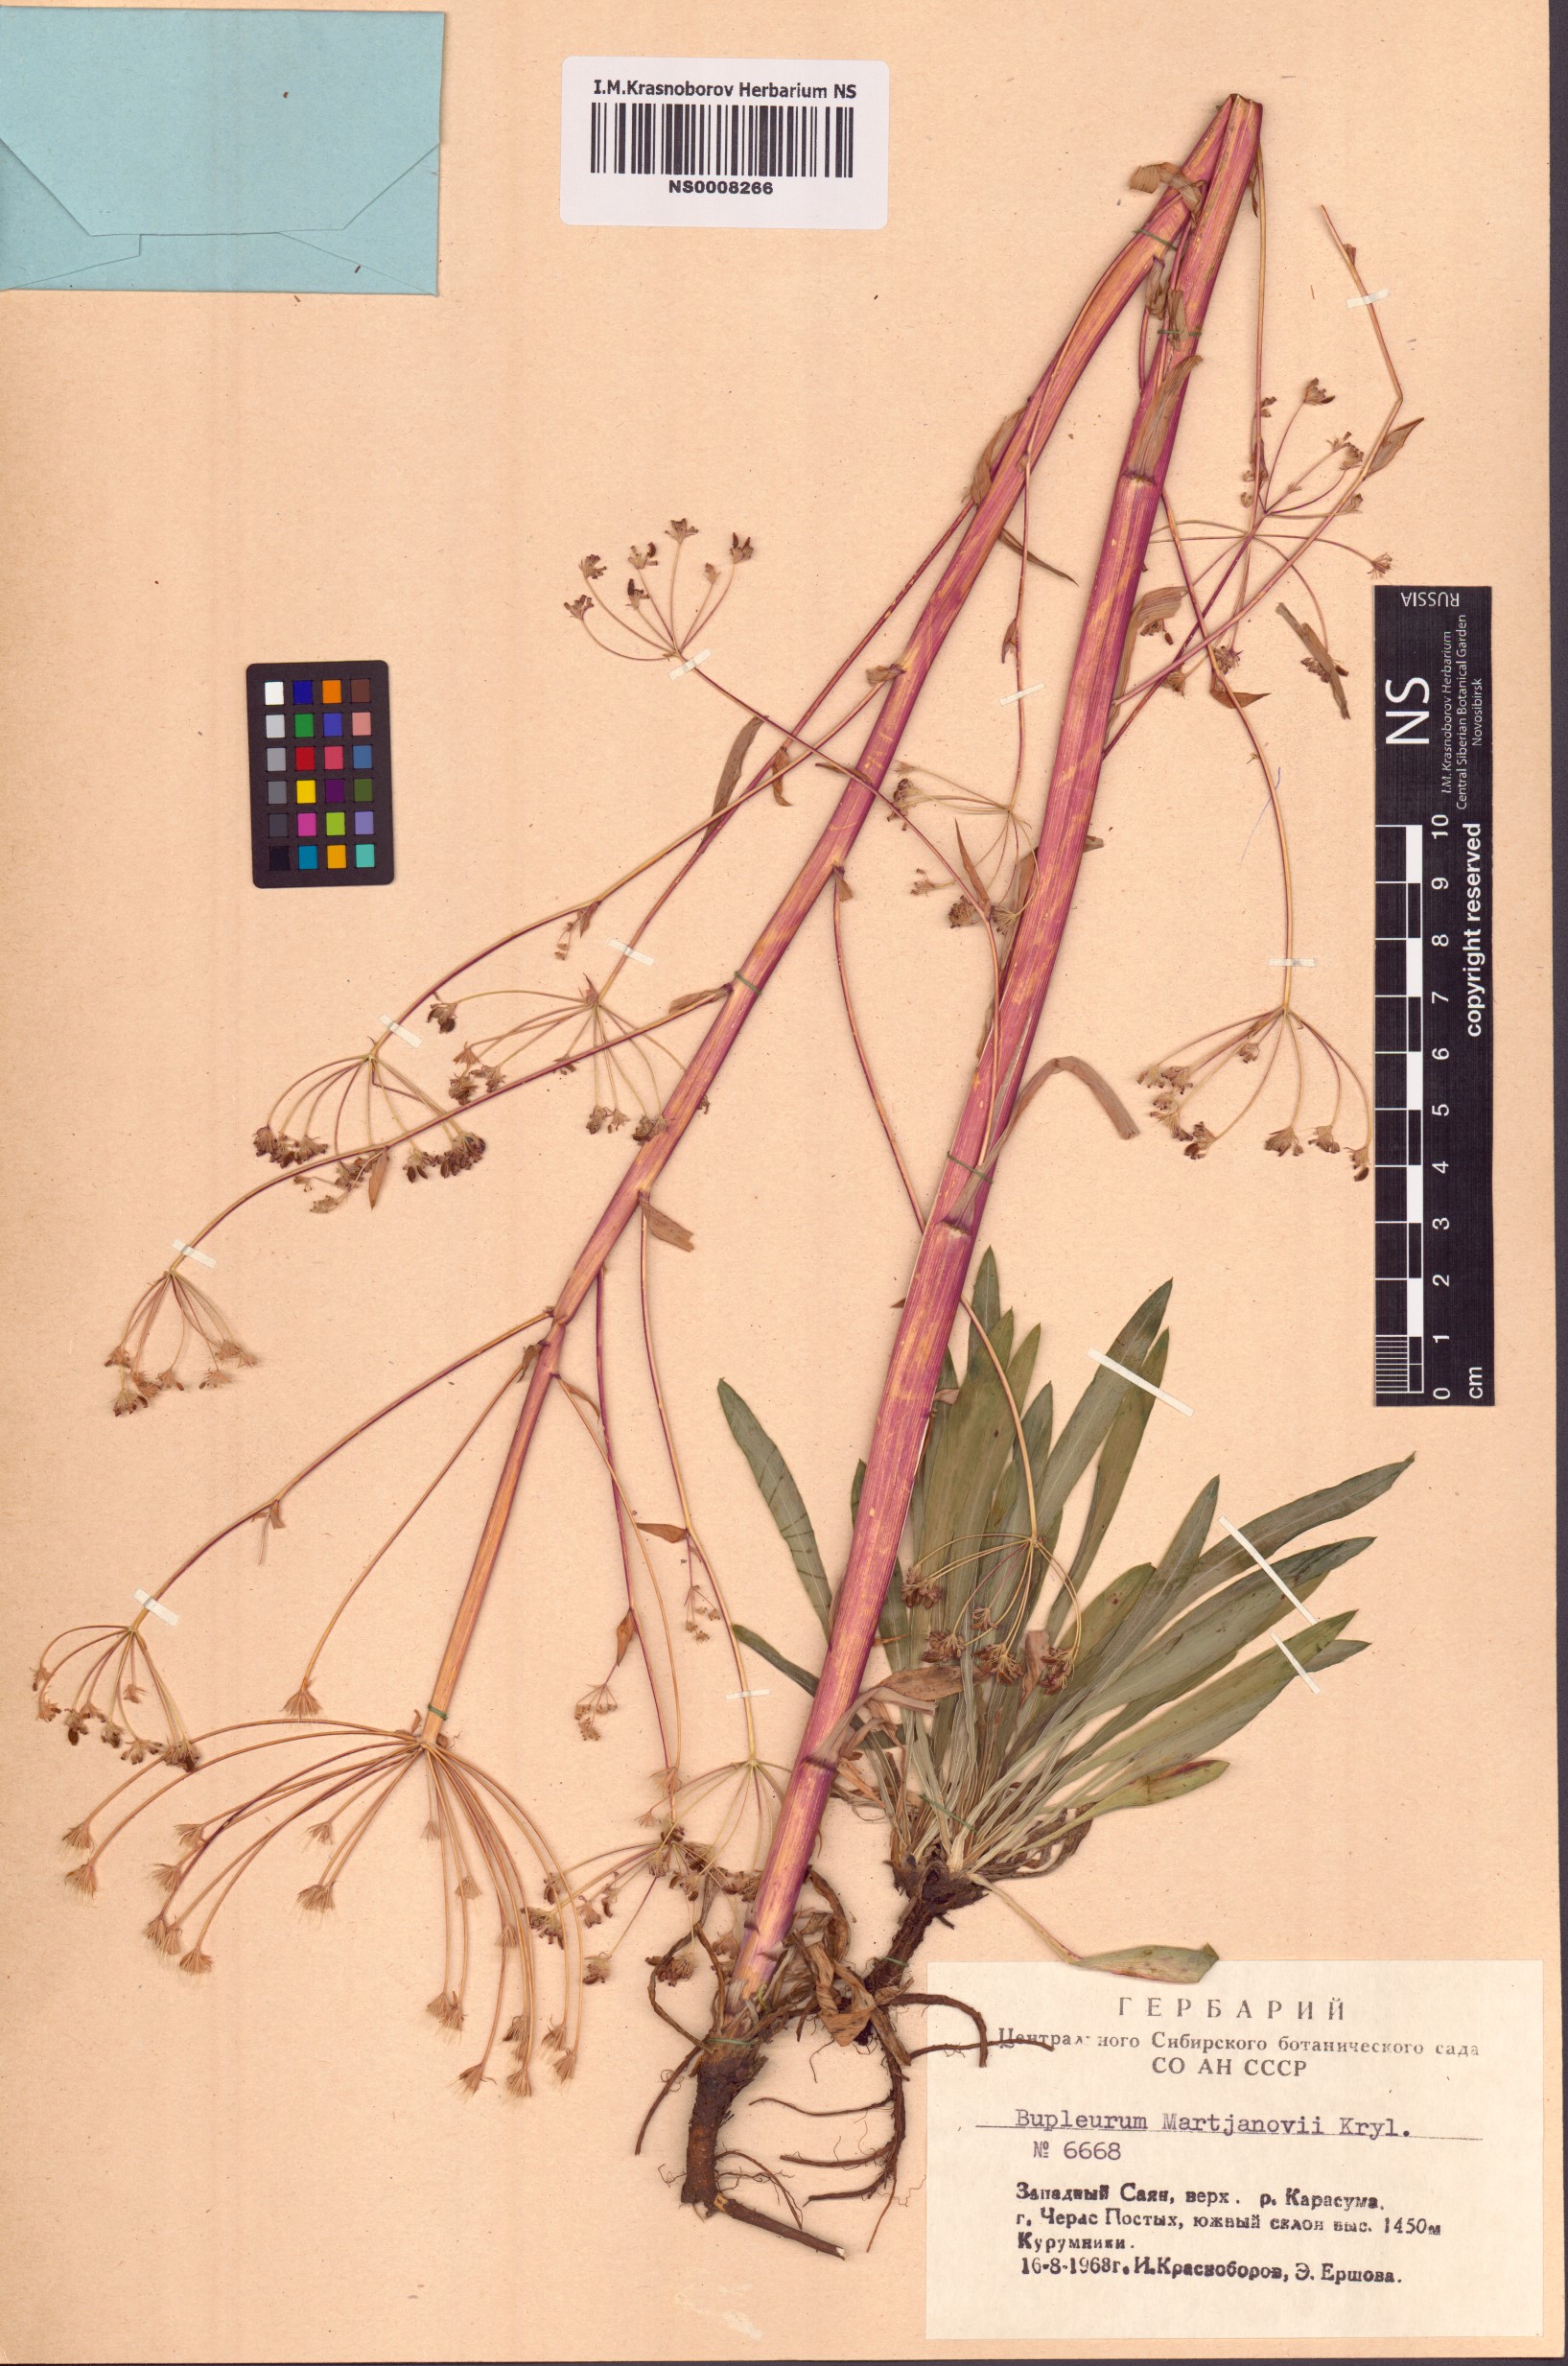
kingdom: Plantae
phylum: Tracheophyta
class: Magnoliopsida
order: Apiales
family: Apiaceae
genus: Bupleurum
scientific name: Bupleurum martjanovii
